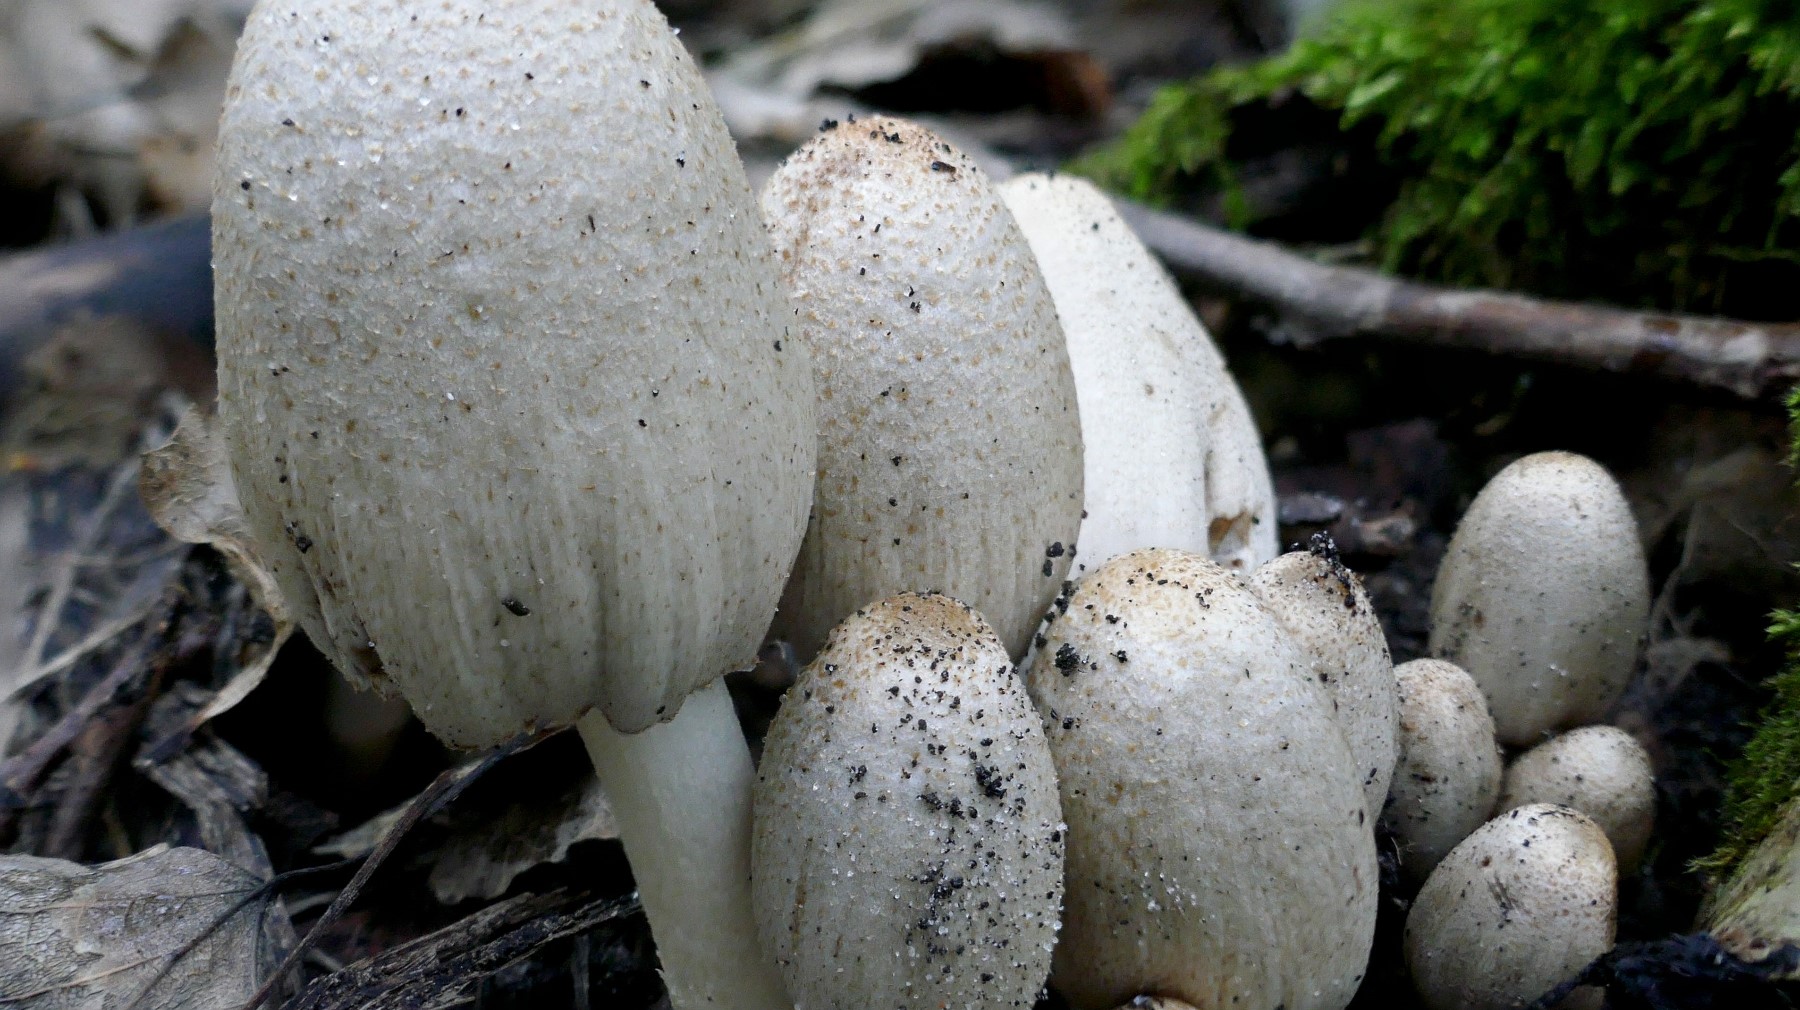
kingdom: Fungi
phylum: Basidiomycota
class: Agaricomycetes
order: Agaricales
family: Psathyrellaceae
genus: Coprinopsis
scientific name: Coprinopsis romagnesiana
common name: brunskællet blækhat
